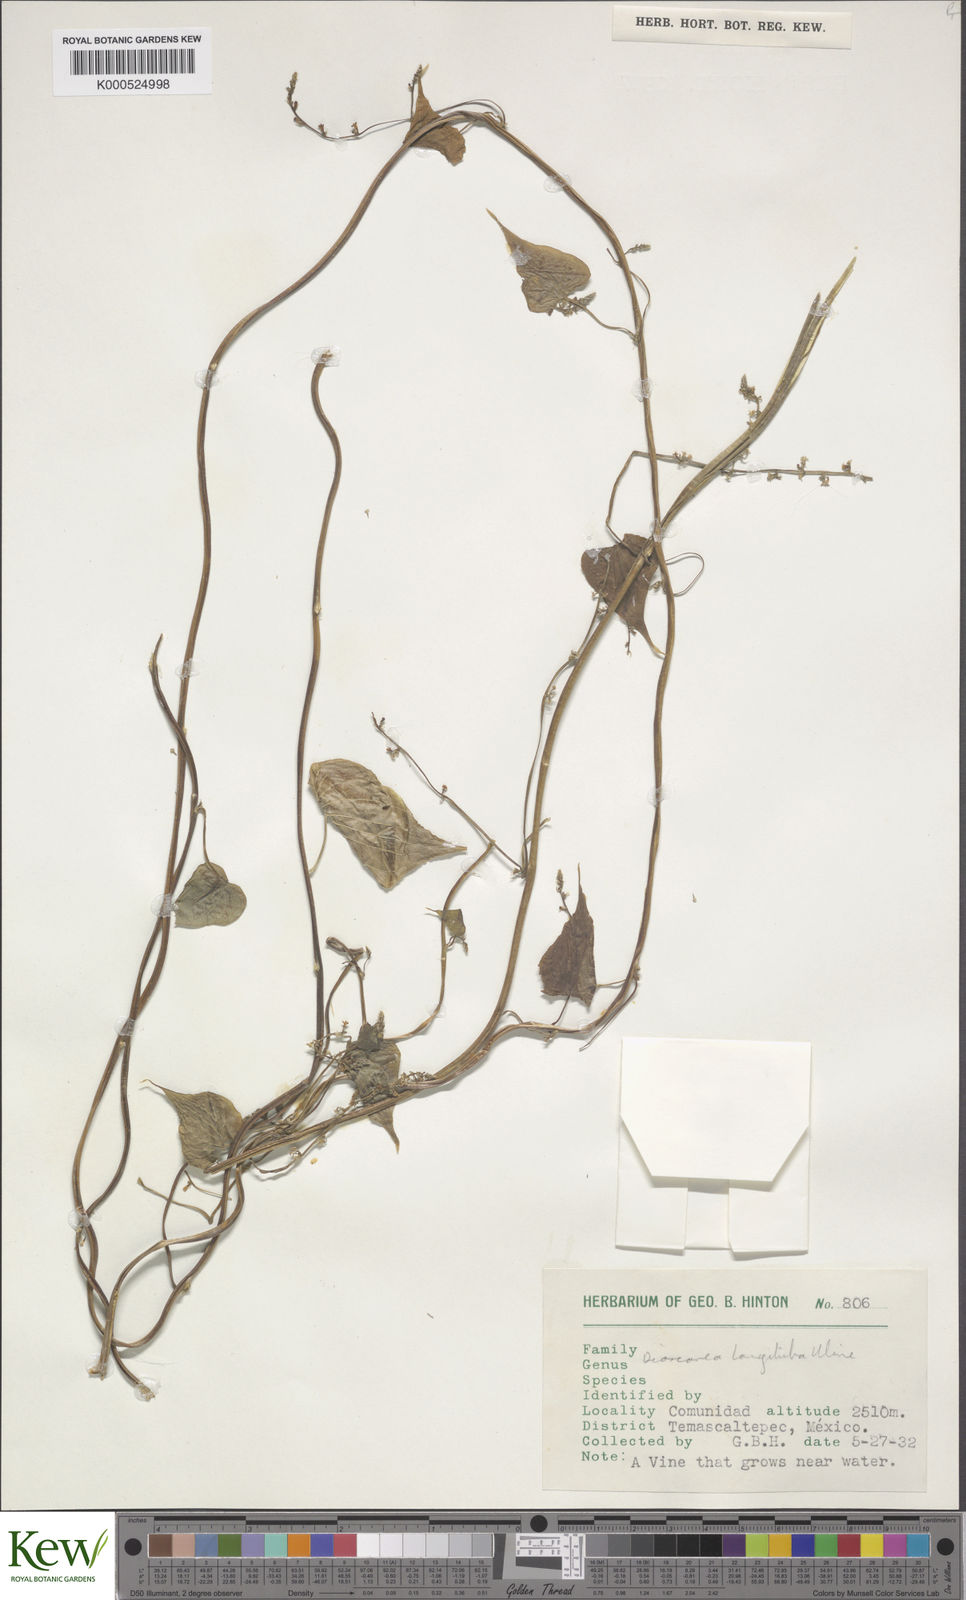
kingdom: Plantae
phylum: Tracheophyta
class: Liliopsida
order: Dioscoreales
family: Dioscoreaceae
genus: Dioscorea
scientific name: Dioscorea longituba
